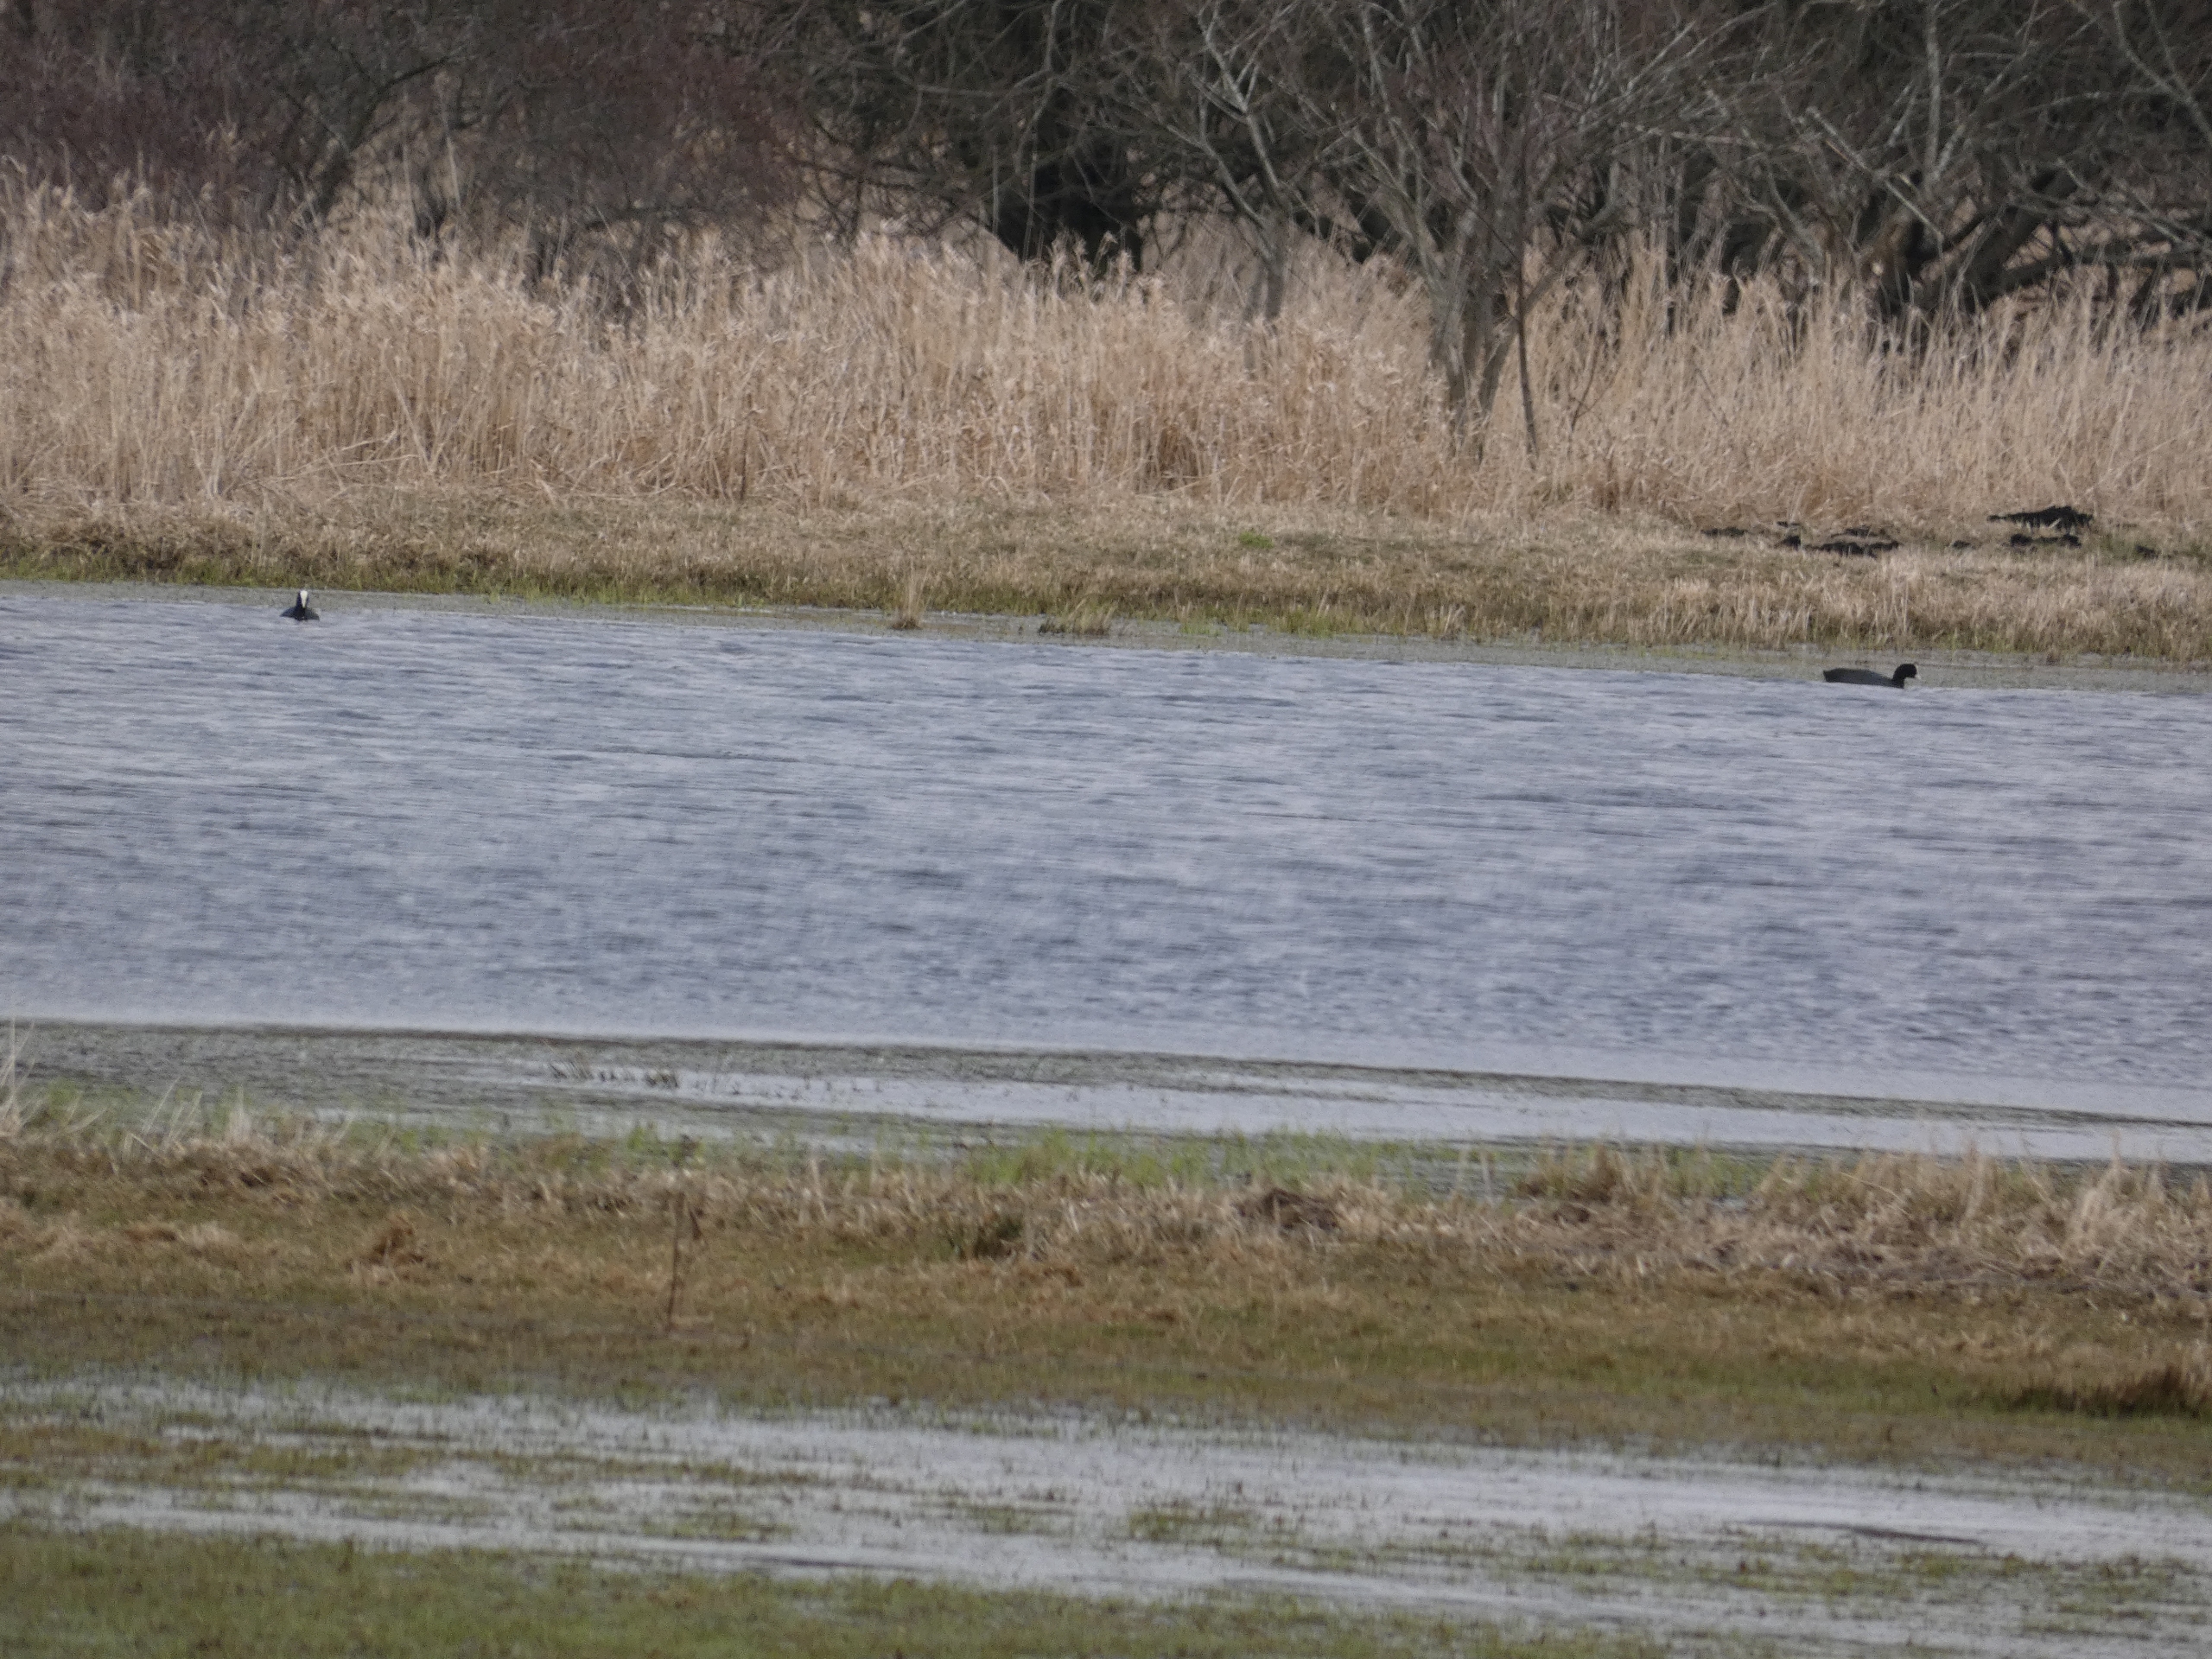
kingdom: Animalia
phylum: Chordata
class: Aves
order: Gruiformes
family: Rallidae
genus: Fulica
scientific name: Fulica atra
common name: Blishøne
